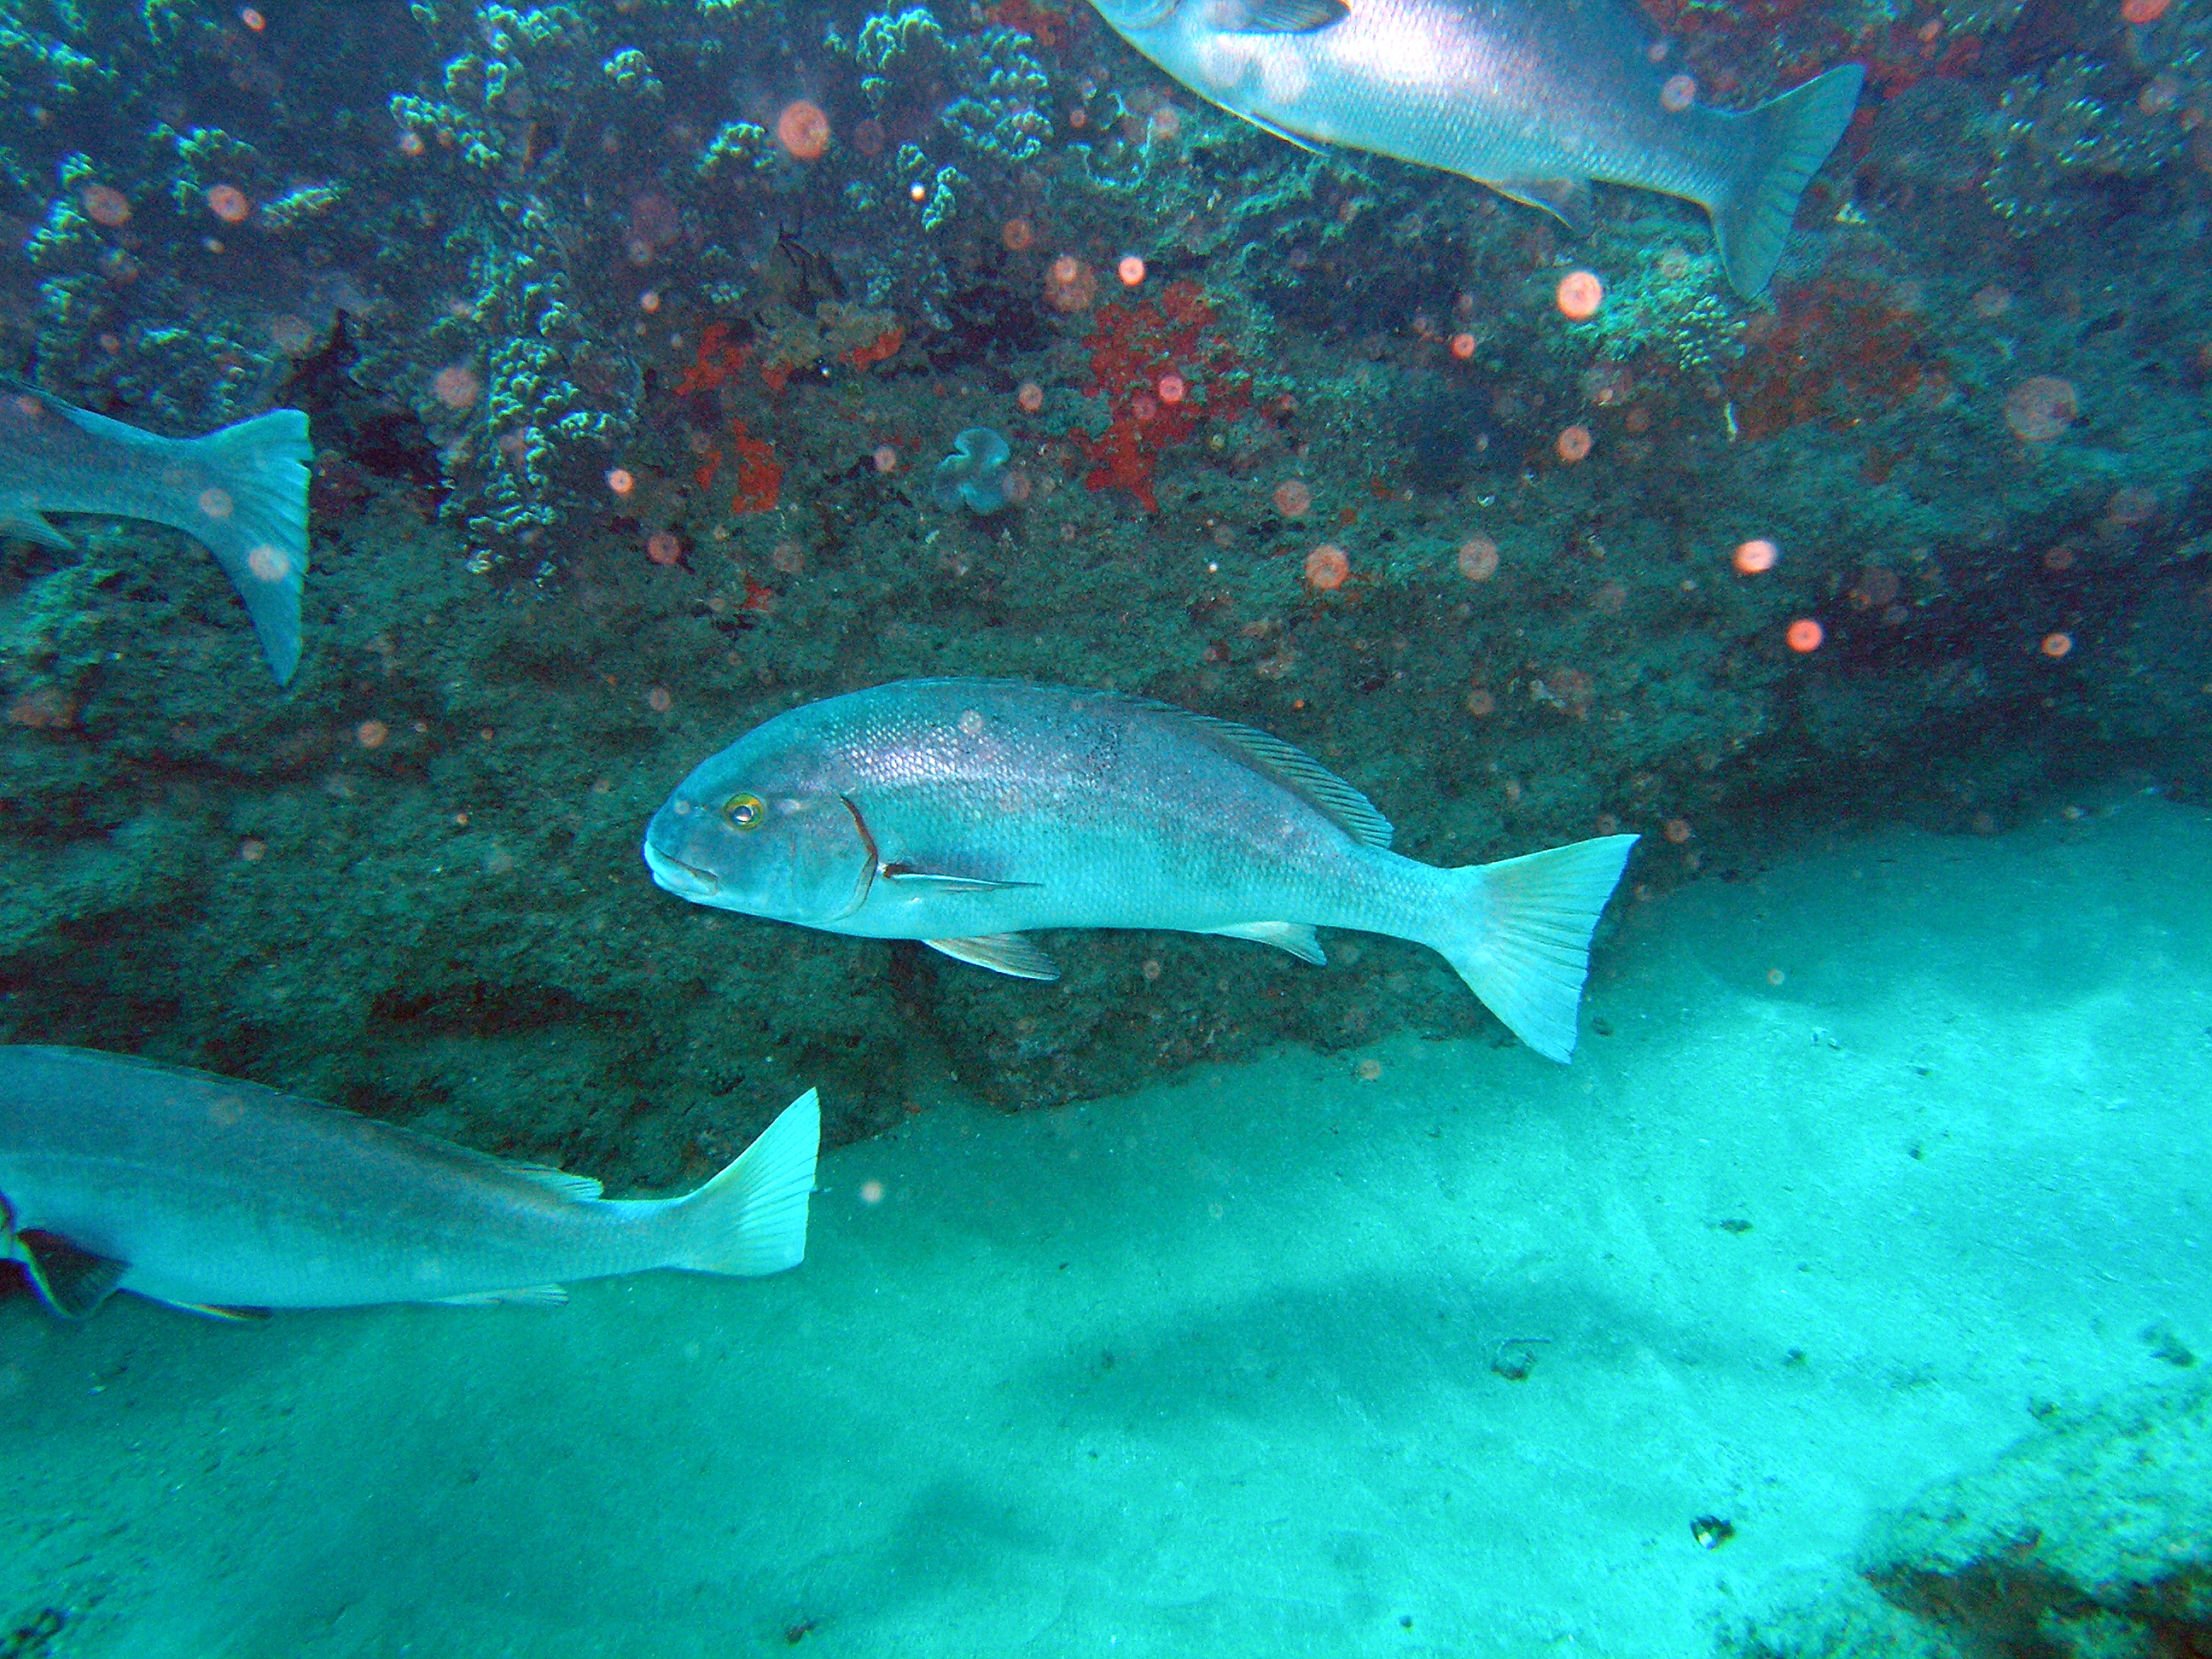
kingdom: Animalia
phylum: Chordata
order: Perciformes
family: Haemulidae
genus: Plectorhinchus
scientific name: Plectorhinchus chubbi
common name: Dusky rubberlip
